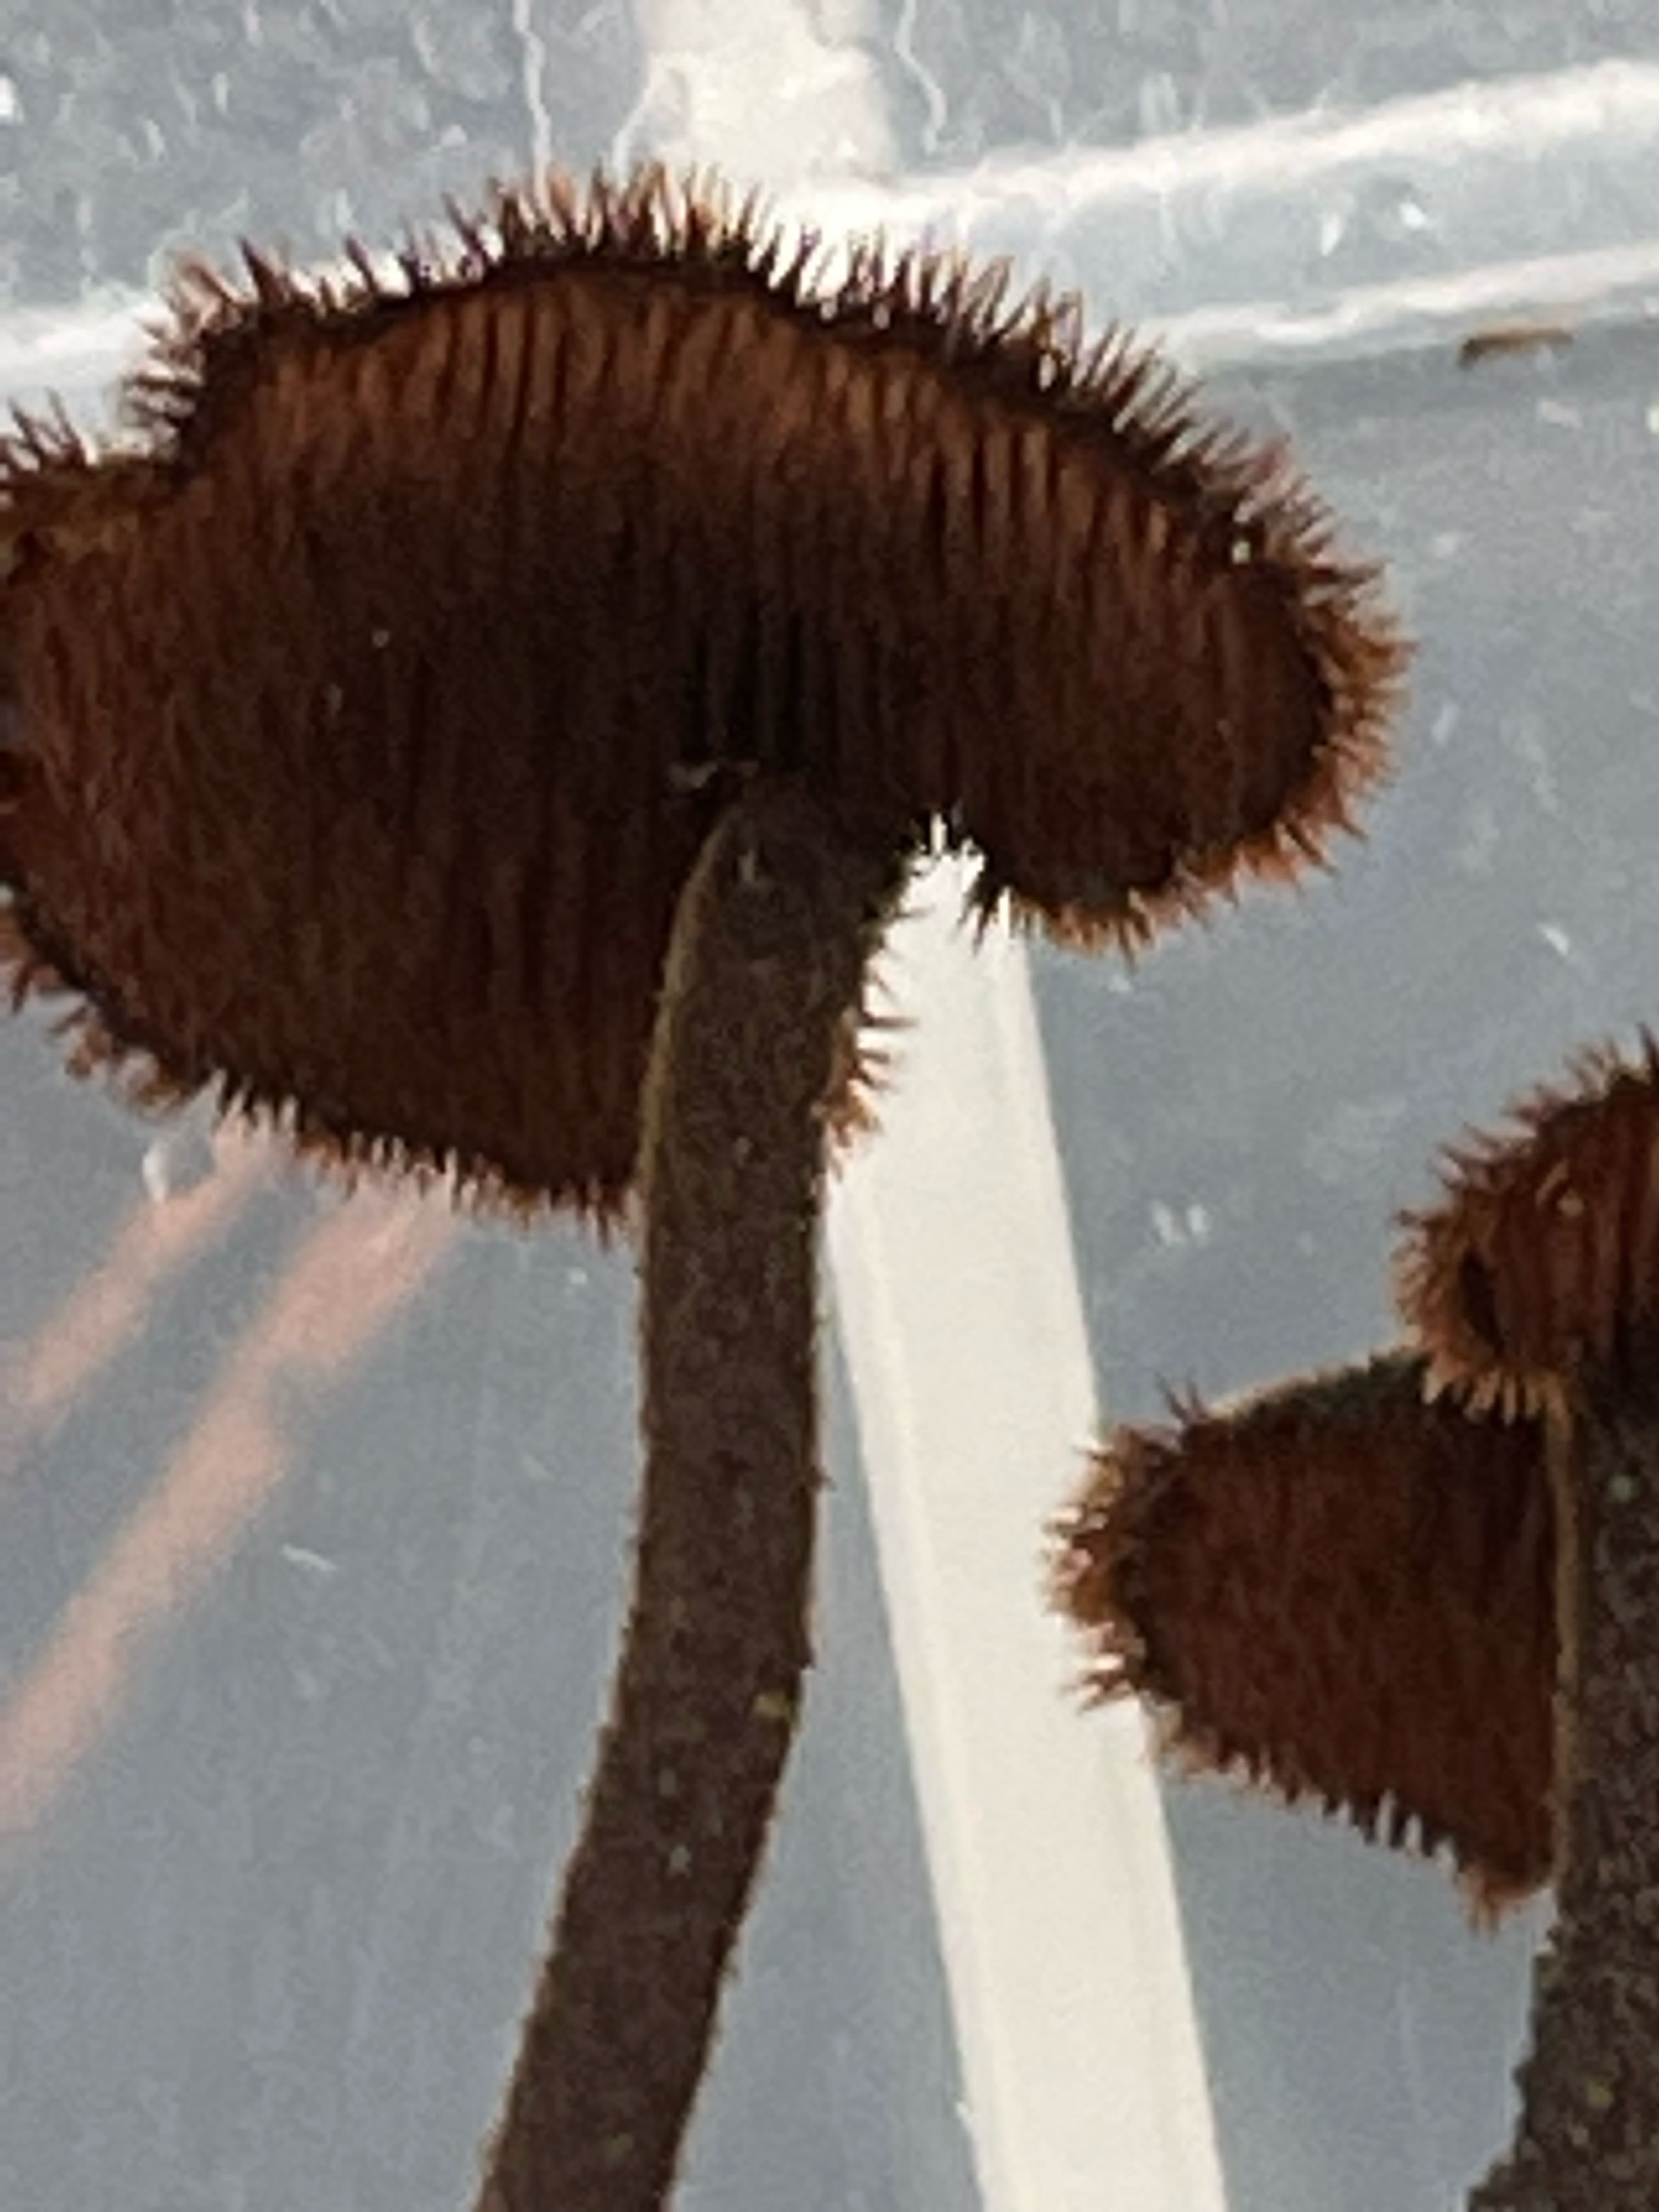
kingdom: Fungi
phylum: Basidiomycota
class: Agaricomycetes
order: Russulales
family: Auriscalpiaceae
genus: Auriscalpium
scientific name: Auriscalpium vulgare
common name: koglepigsvamp
